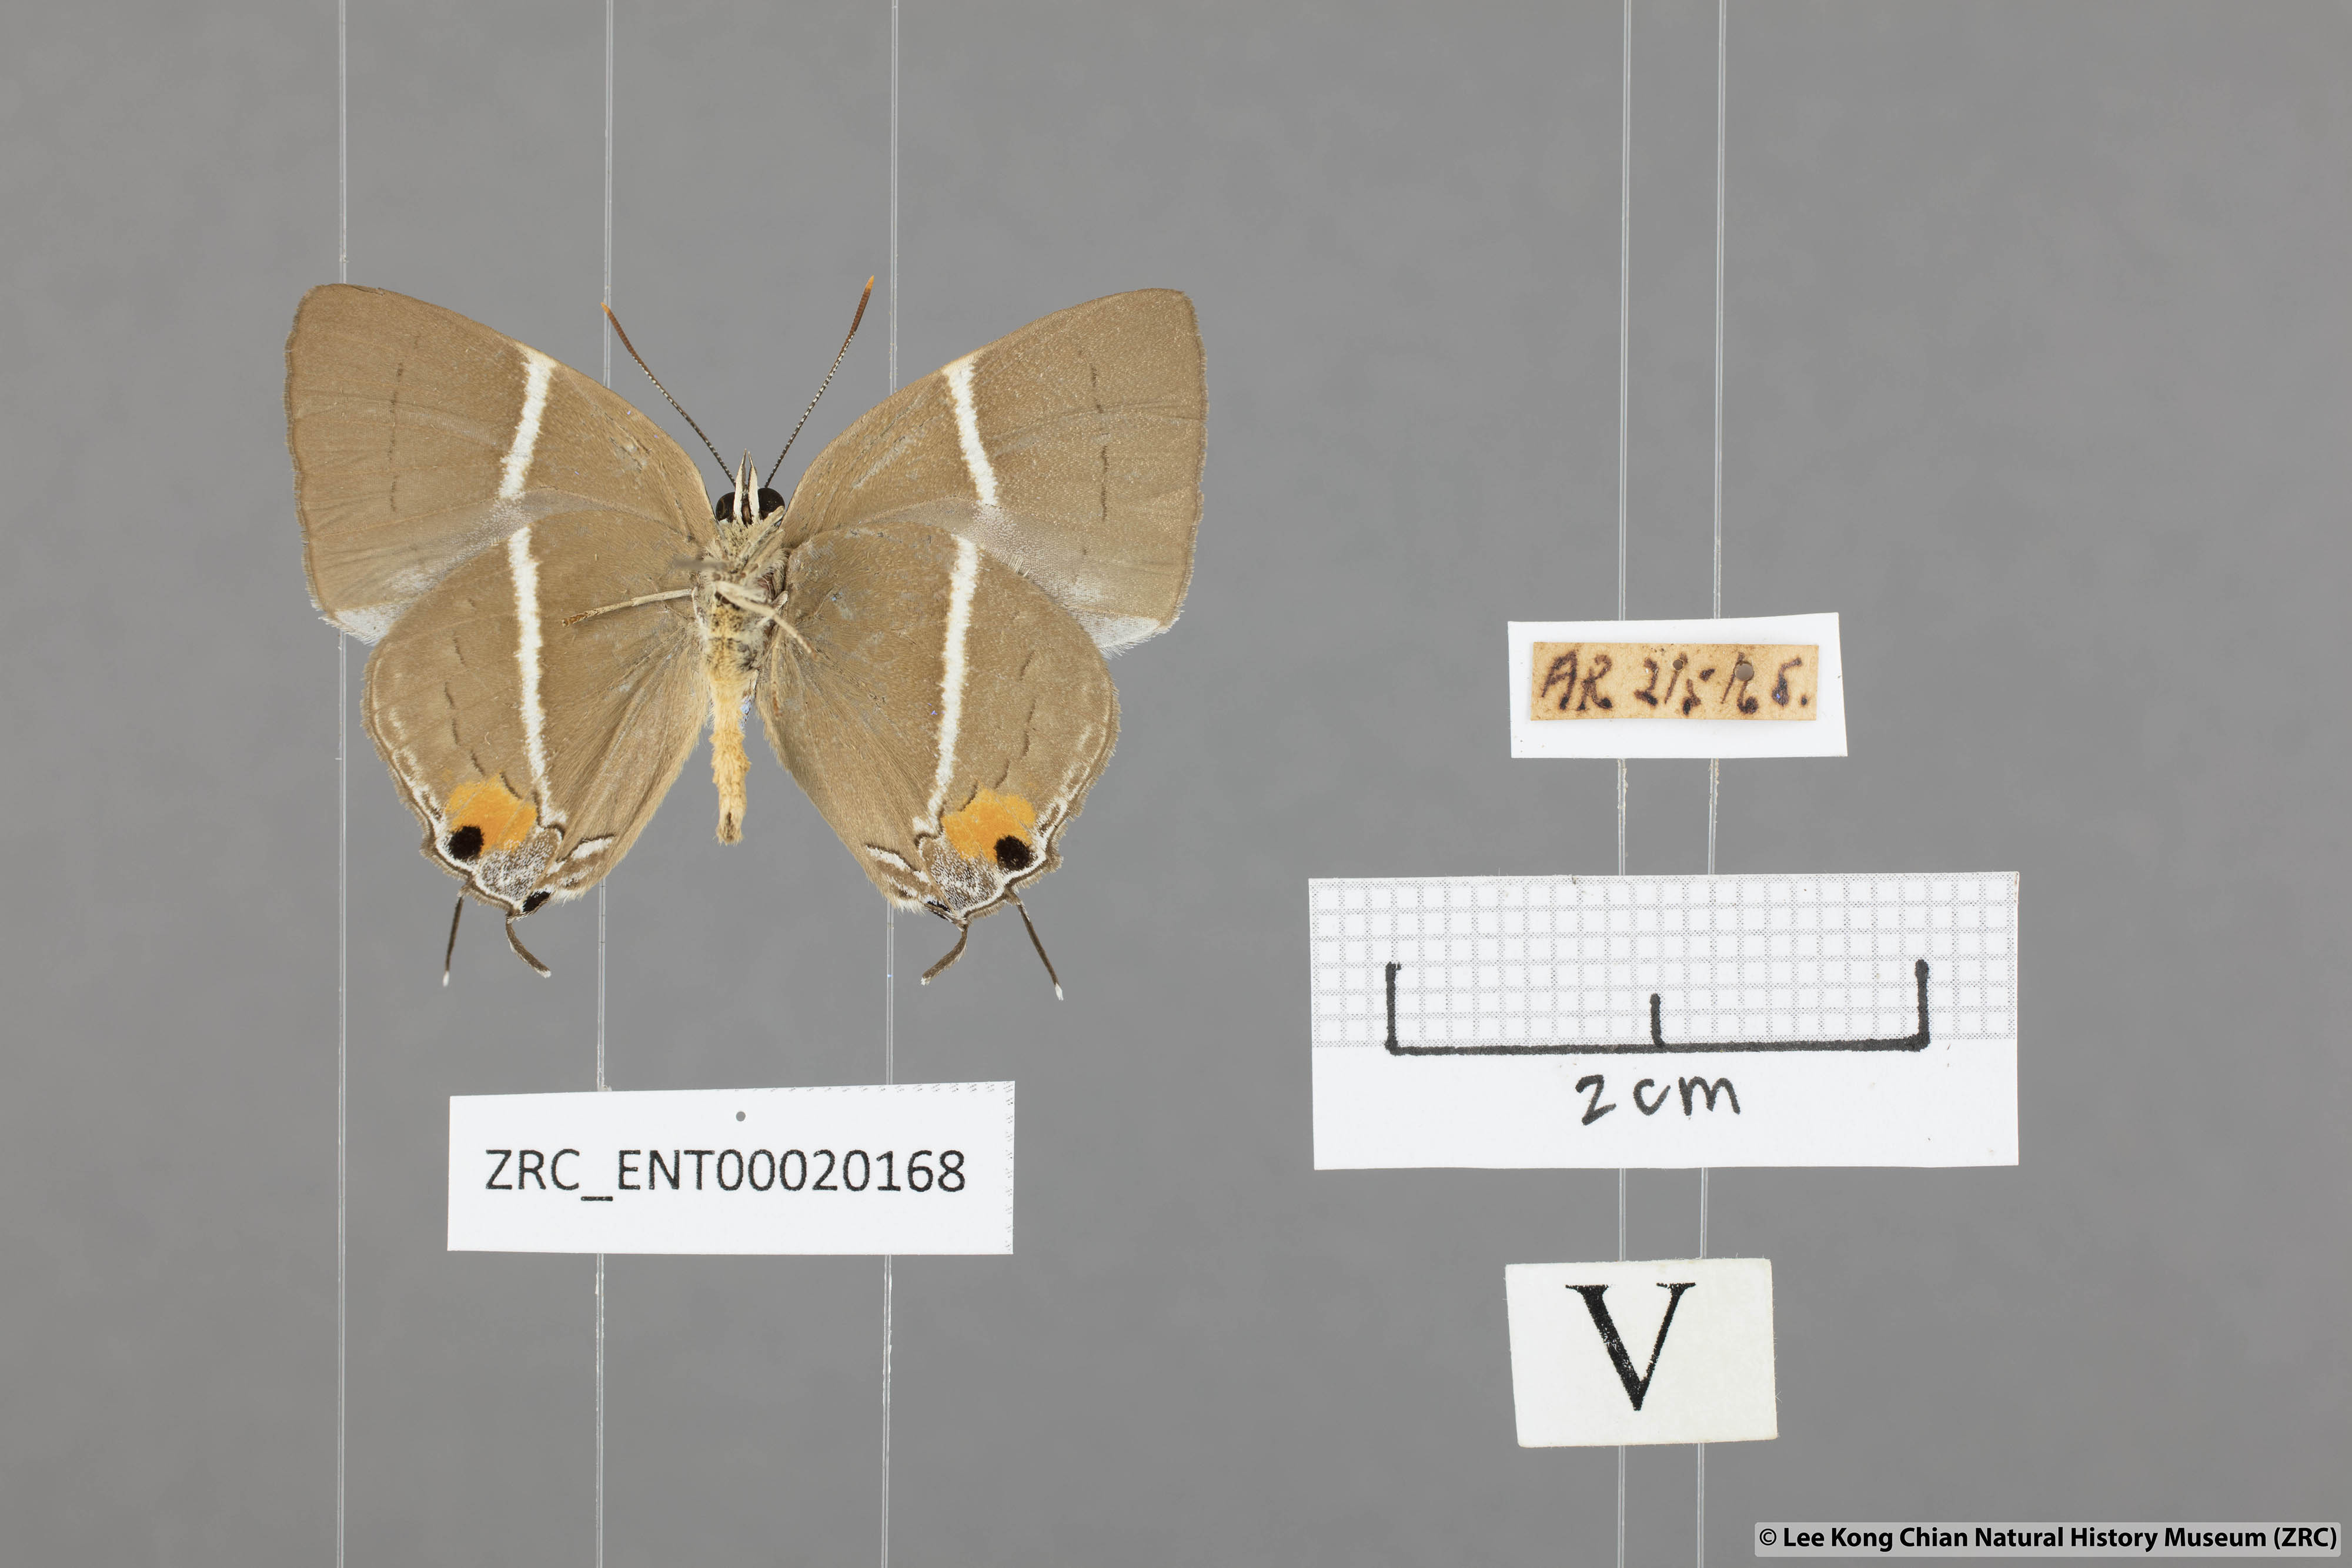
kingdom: Animalia
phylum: Arthropoda
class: Insecta
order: Lepidoptera
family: Lycaenidae
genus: Dacalana
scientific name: Dacalana vidura
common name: Medium-branded royal
